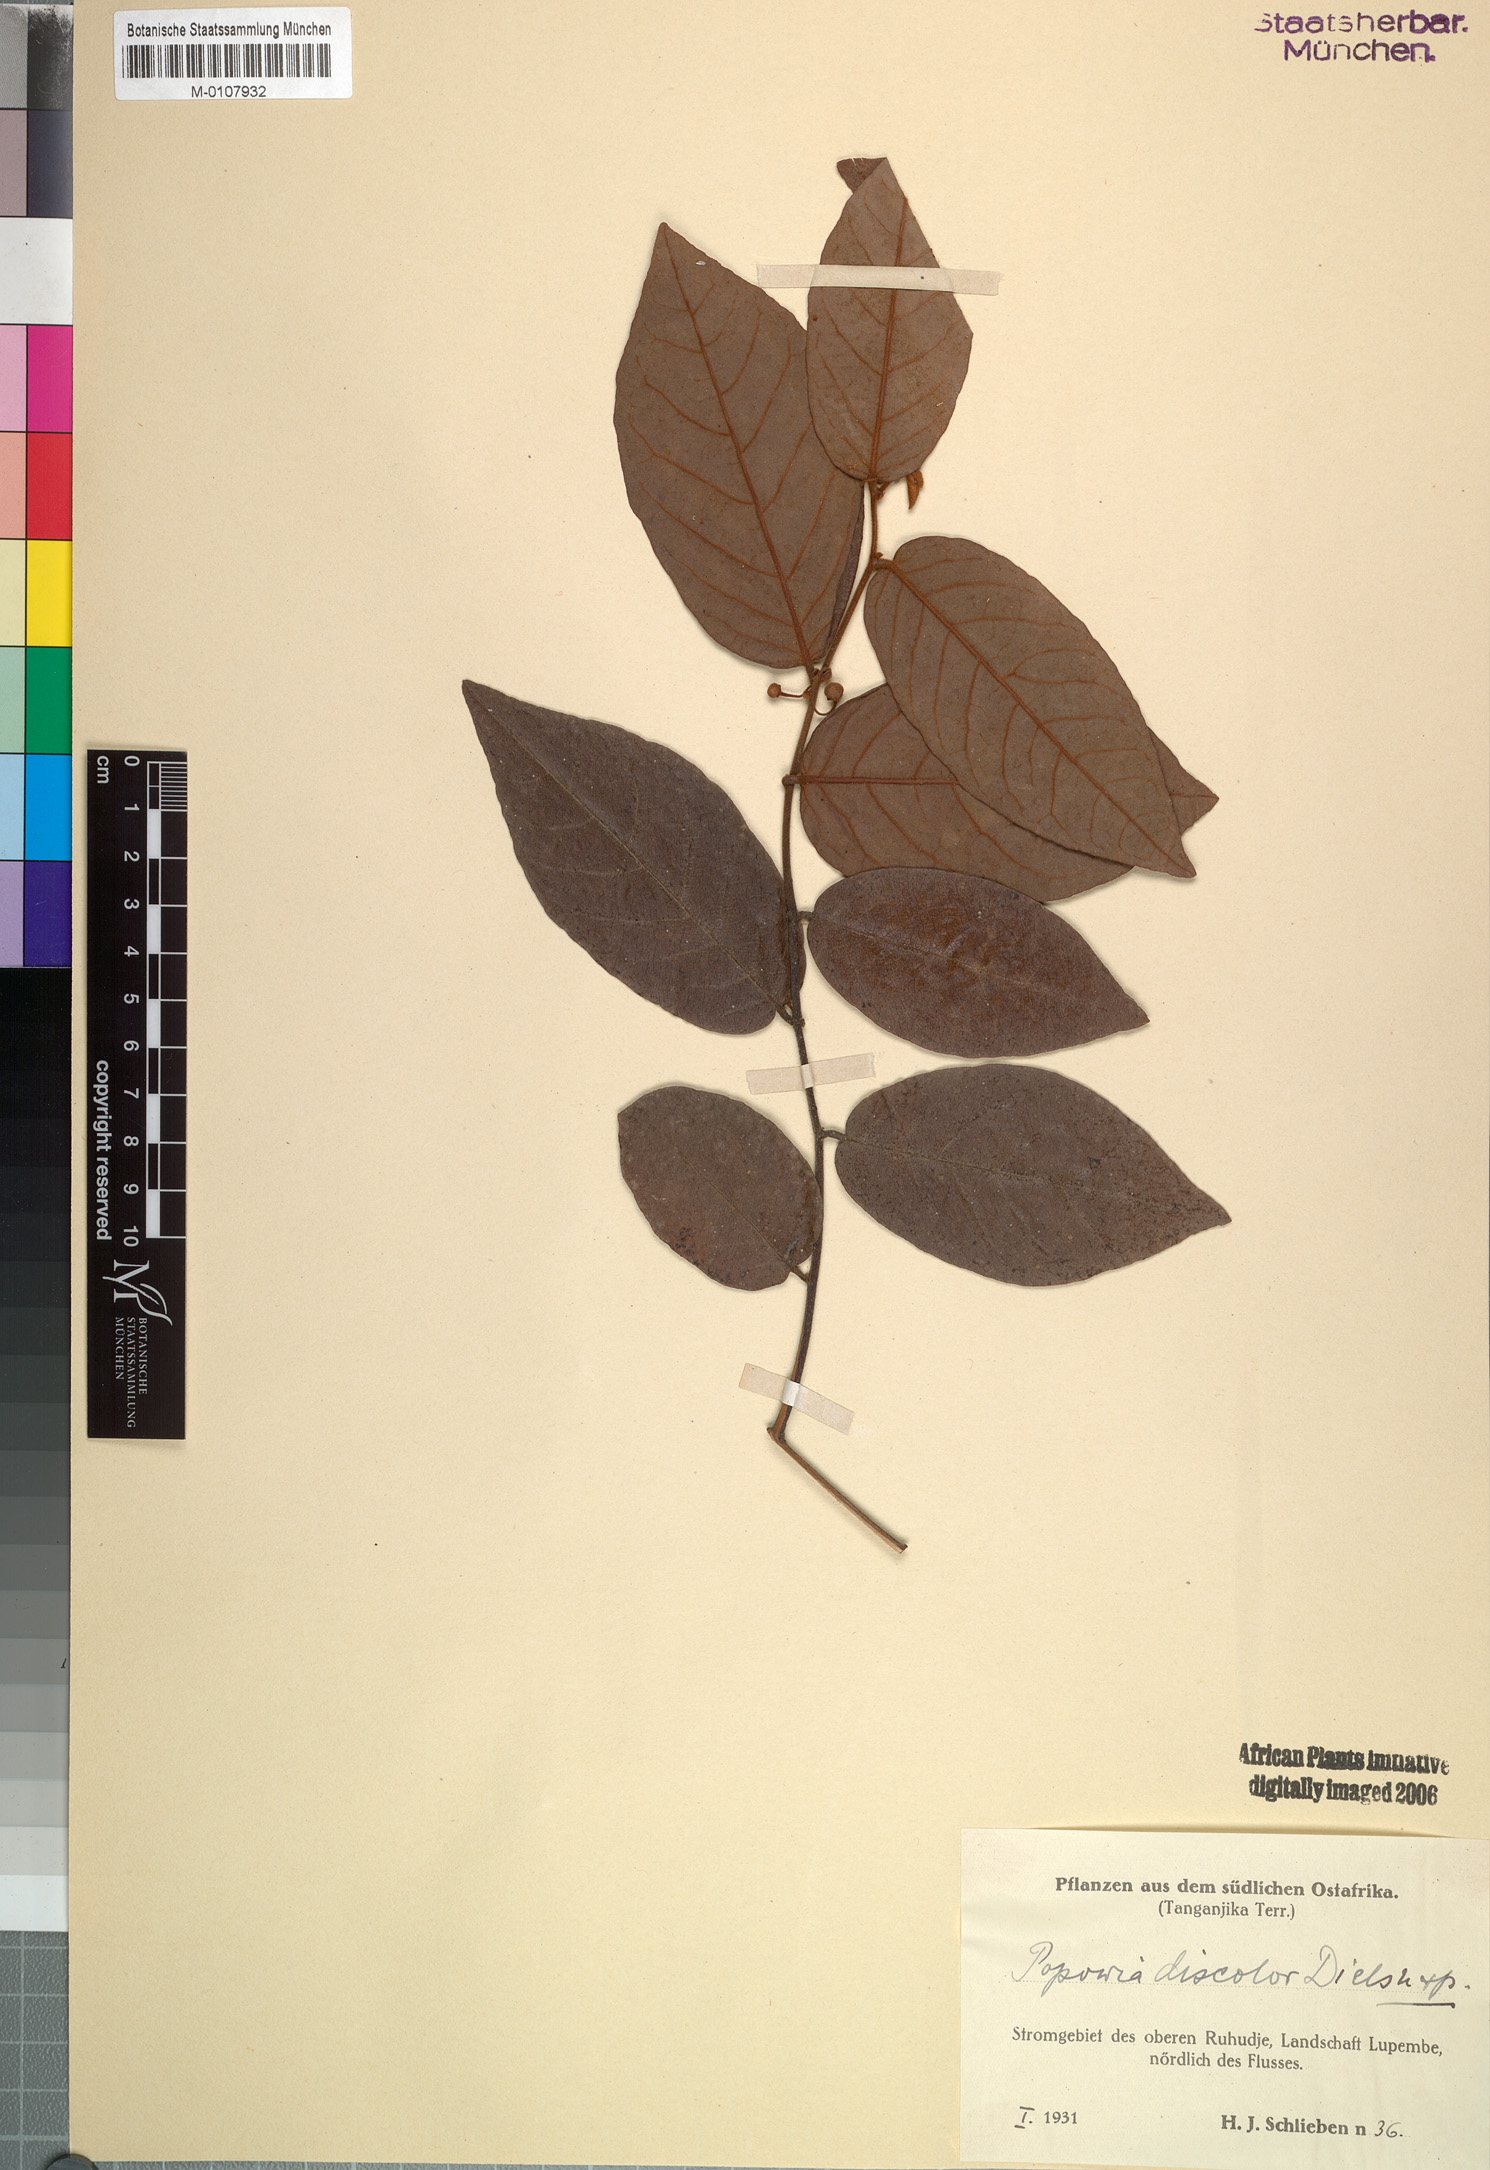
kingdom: Plantae
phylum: Tracheophyta
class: Magnoliopsida
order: Magnoliales
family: Annonaceae
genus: Monanthotaxis
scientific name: Monanthotaxis discolor
